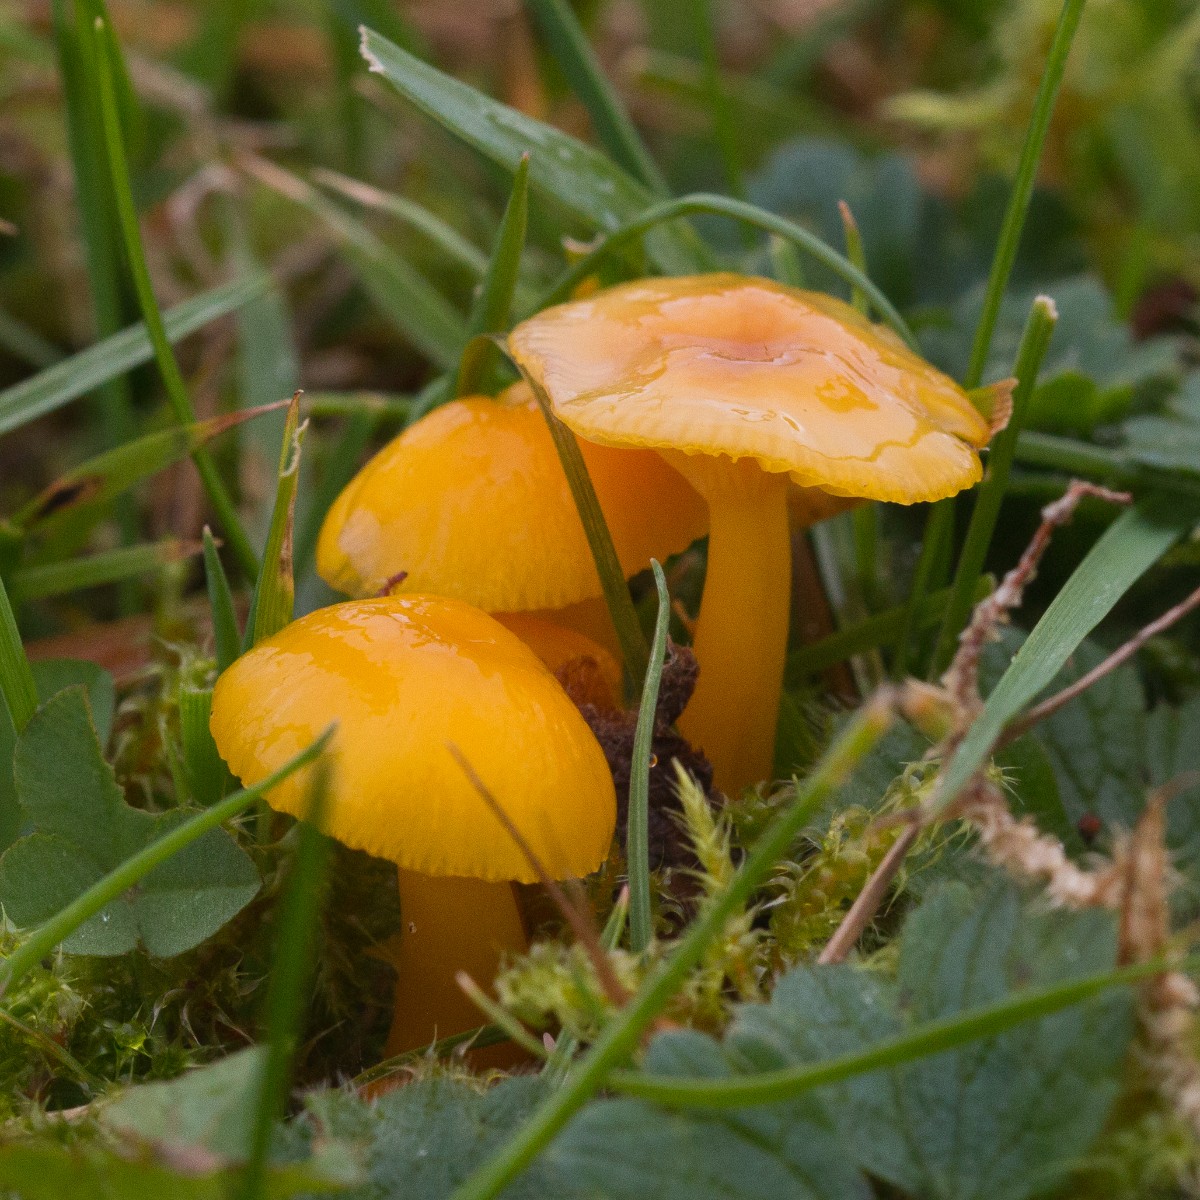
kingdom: Fungi
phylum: Basidiomycota
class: Agaricomycetes
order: Agaricales
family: Hygrophoraceae
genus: Hygrocybe
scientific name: Hygrocybe ceracea
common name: voksgul vokshat
